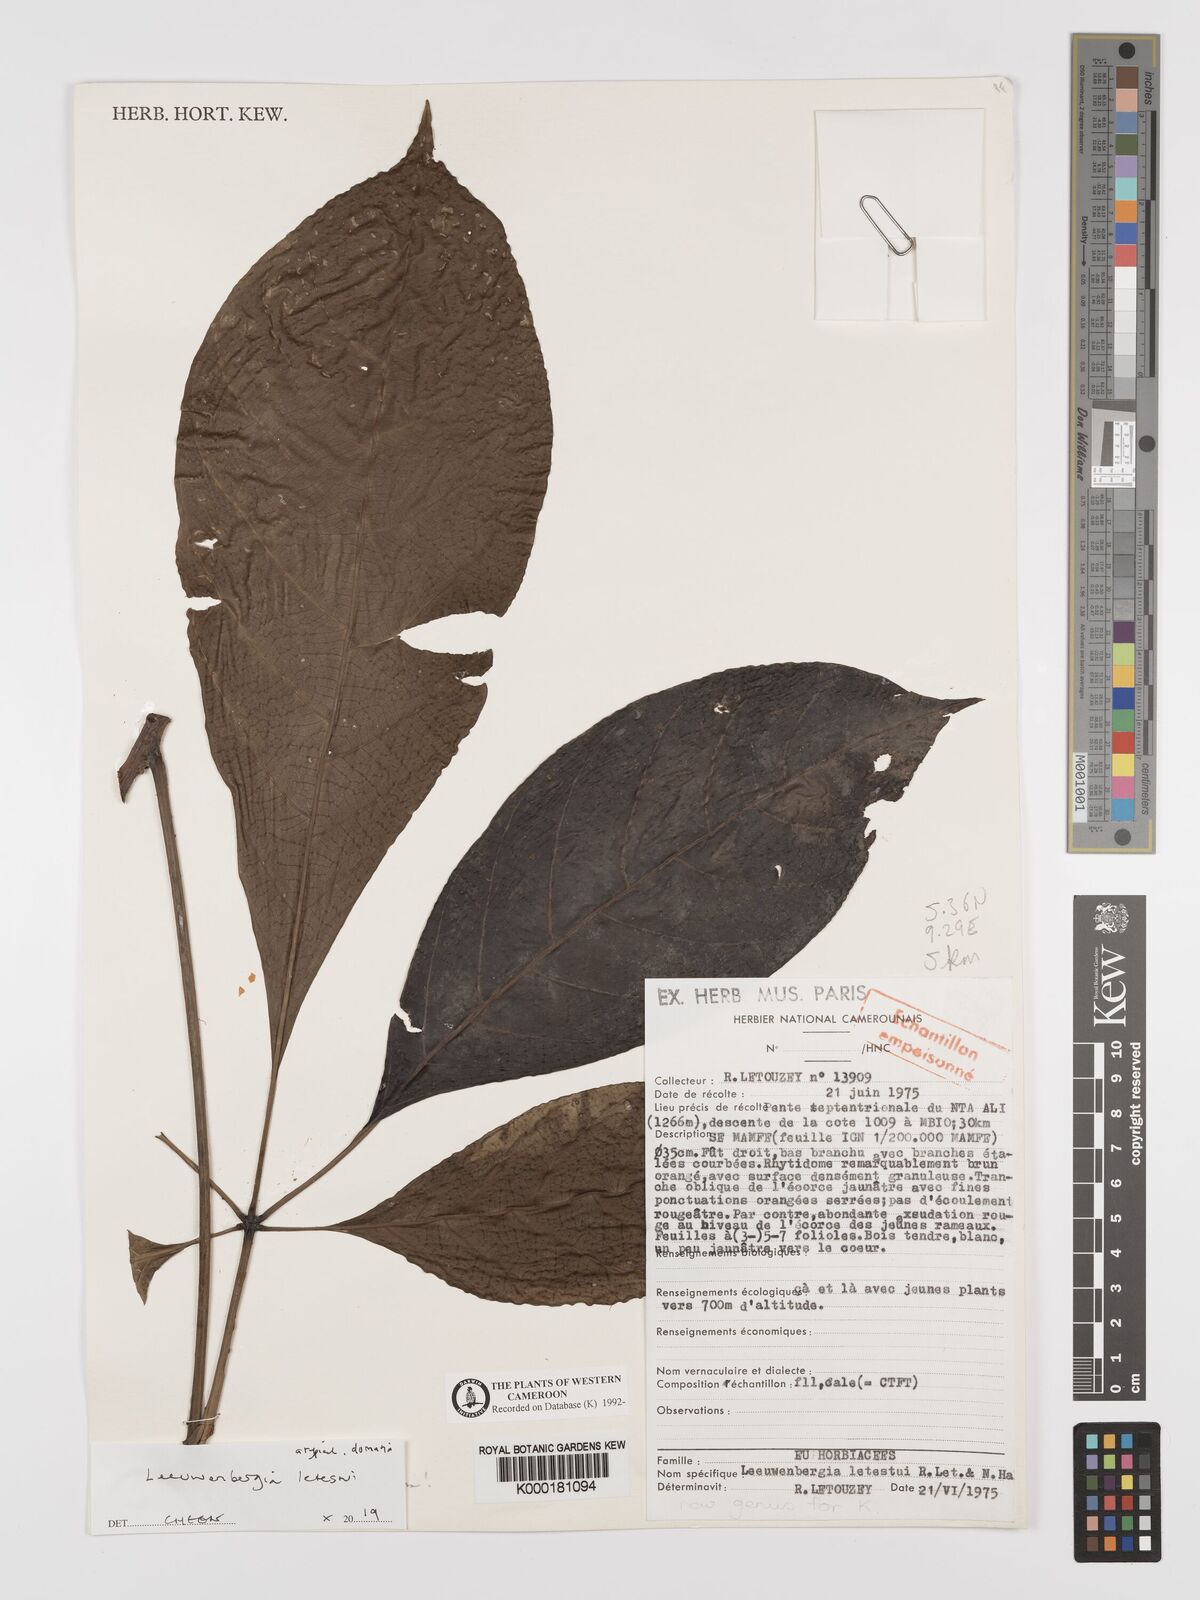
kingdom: Plantae
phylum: Tracheophyta
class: Magnoliopsida
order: Malpighiales
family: Euphorbiaceae
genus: Leeuwenbergia
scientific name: Leeuwenbergia
